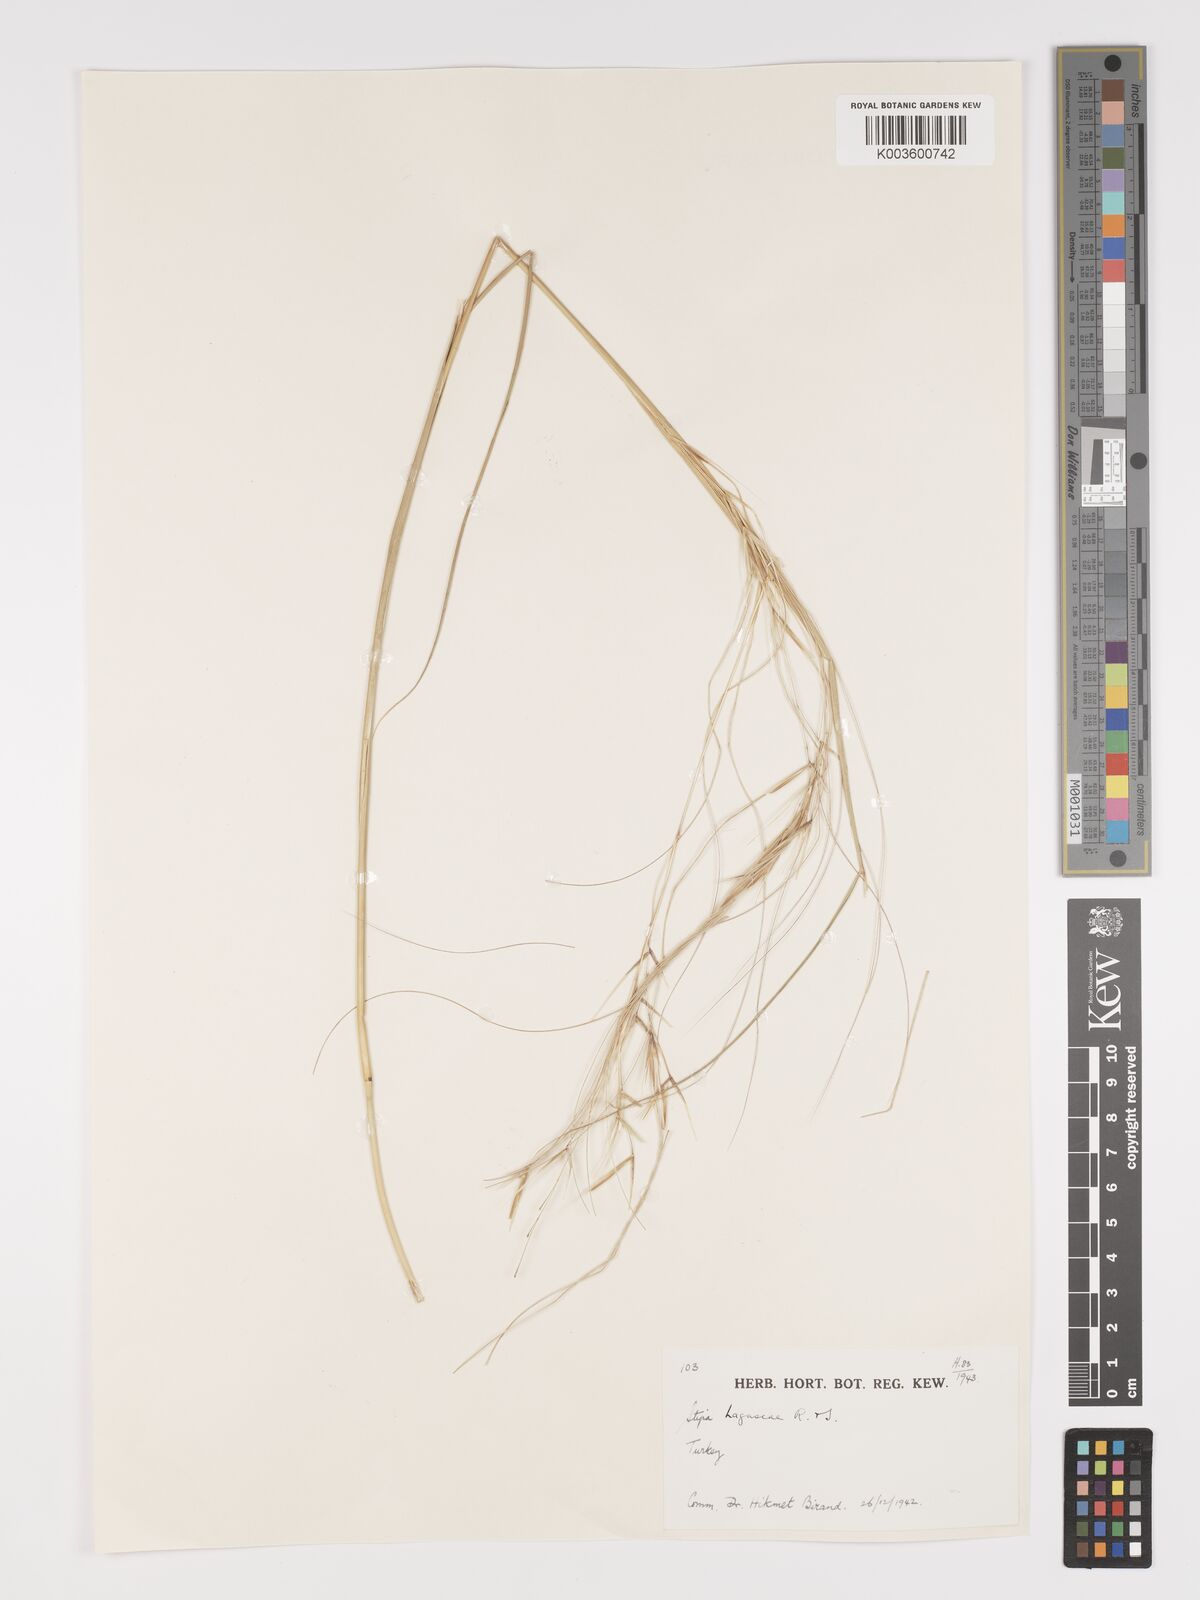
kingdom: Plantae
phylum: Tracheophyta
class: Liliopsida
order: Poales
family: Poaceae
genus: Stipa
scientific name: Stipa lagascae
